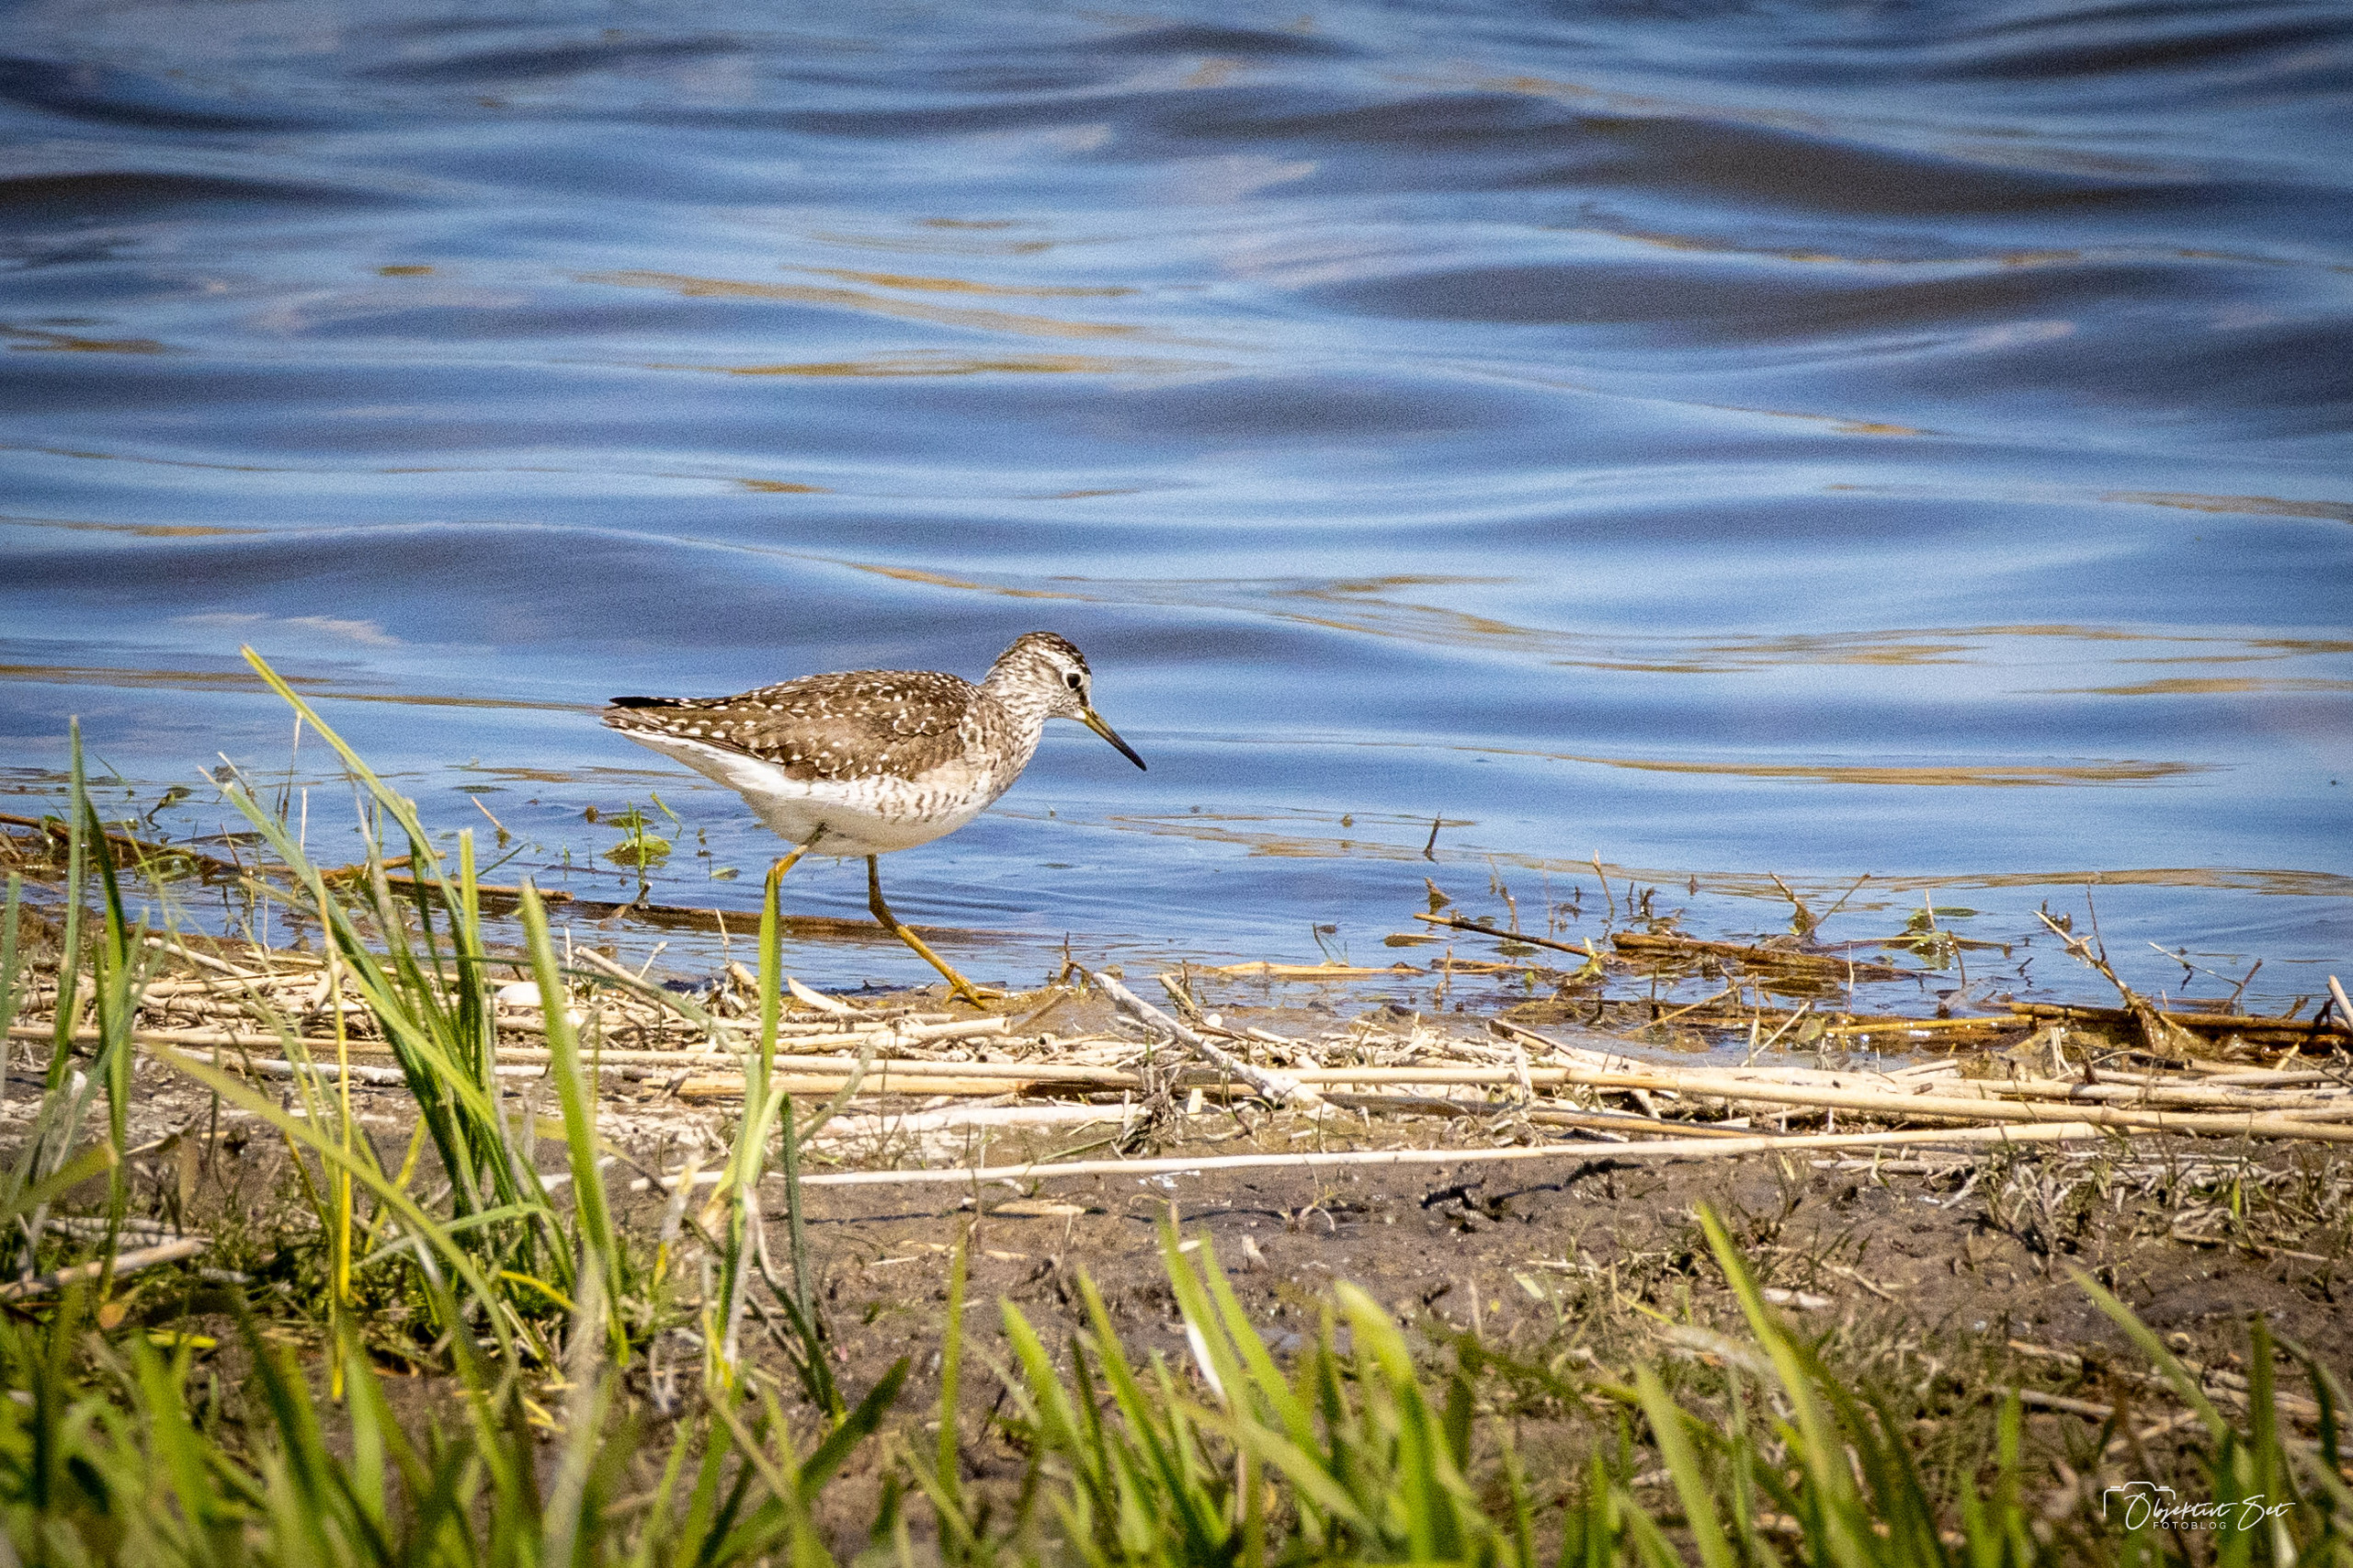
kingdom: Animalia
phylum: Chordata
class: Aves
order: Charadriiformes
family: Scolopacidae
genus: Tringa
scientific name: Tringa glareola
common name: Tinksmed
